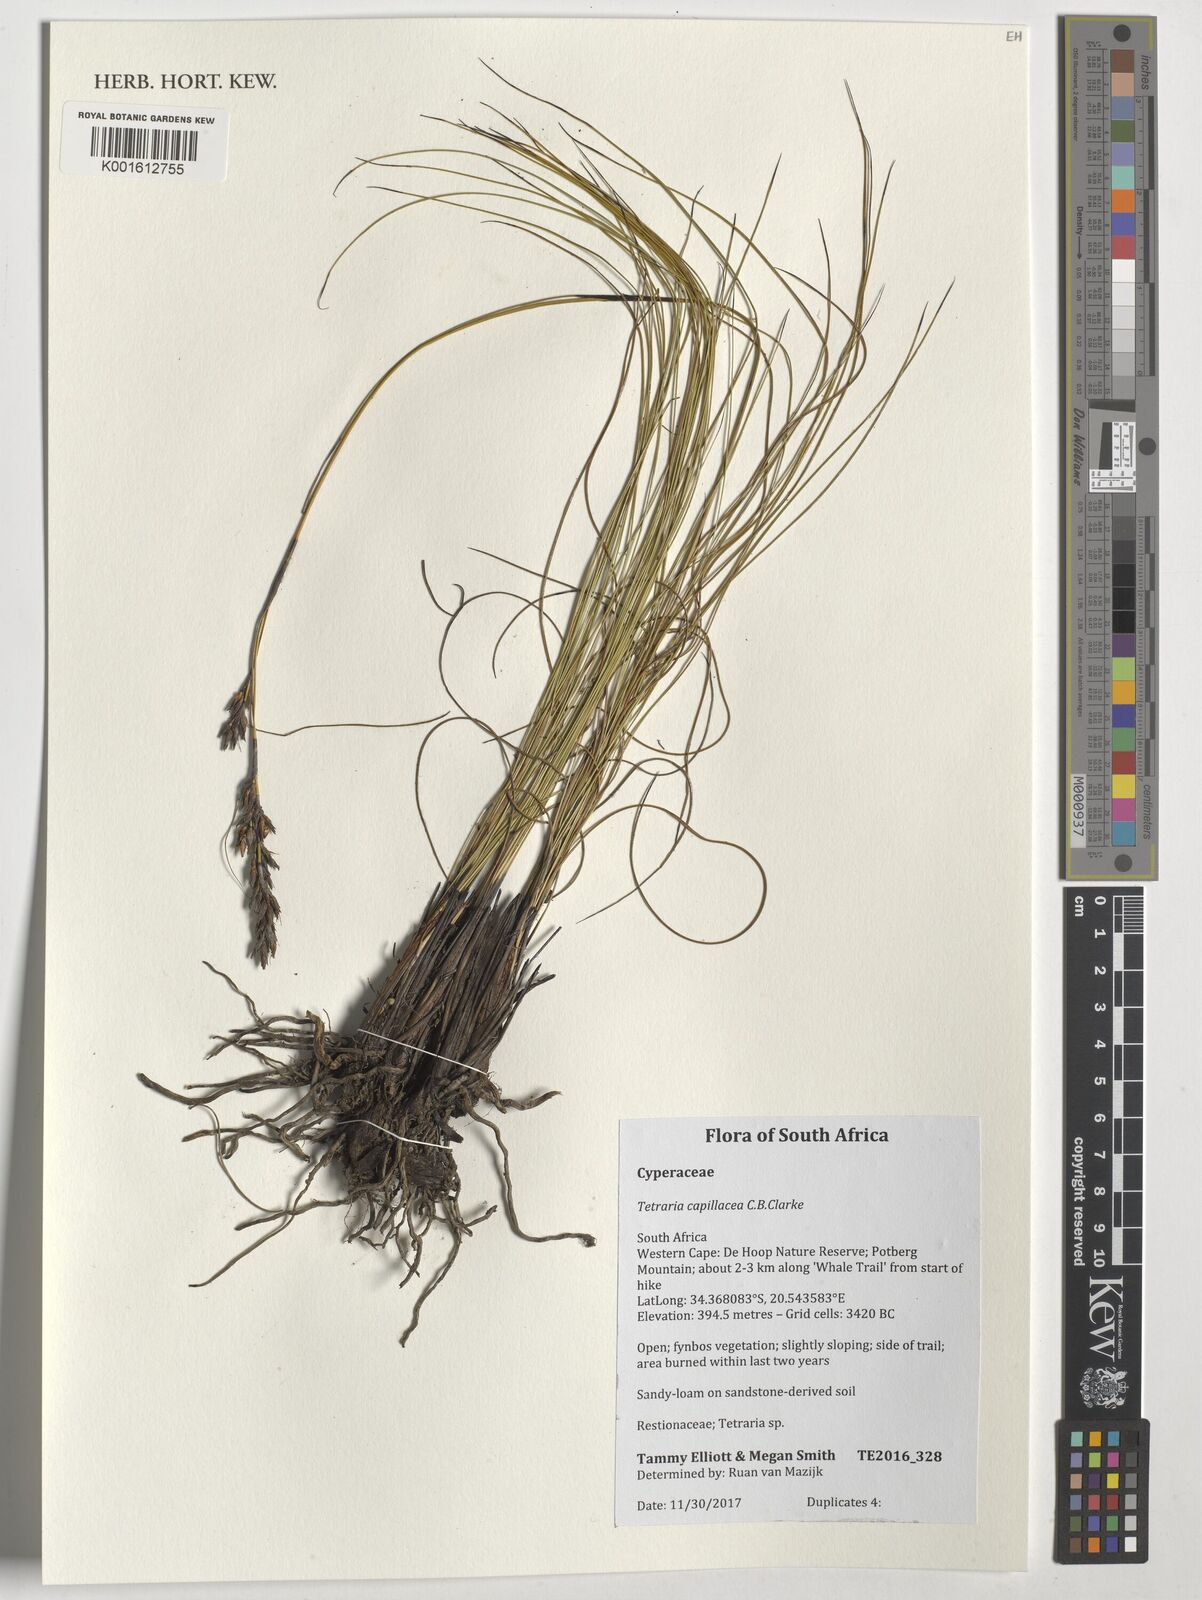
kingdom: Plantae
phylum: Tracheophyta
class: Liliopsida
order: Poales
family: Cyperaceae
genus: Tetraria
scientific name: Tetraria capillacea
